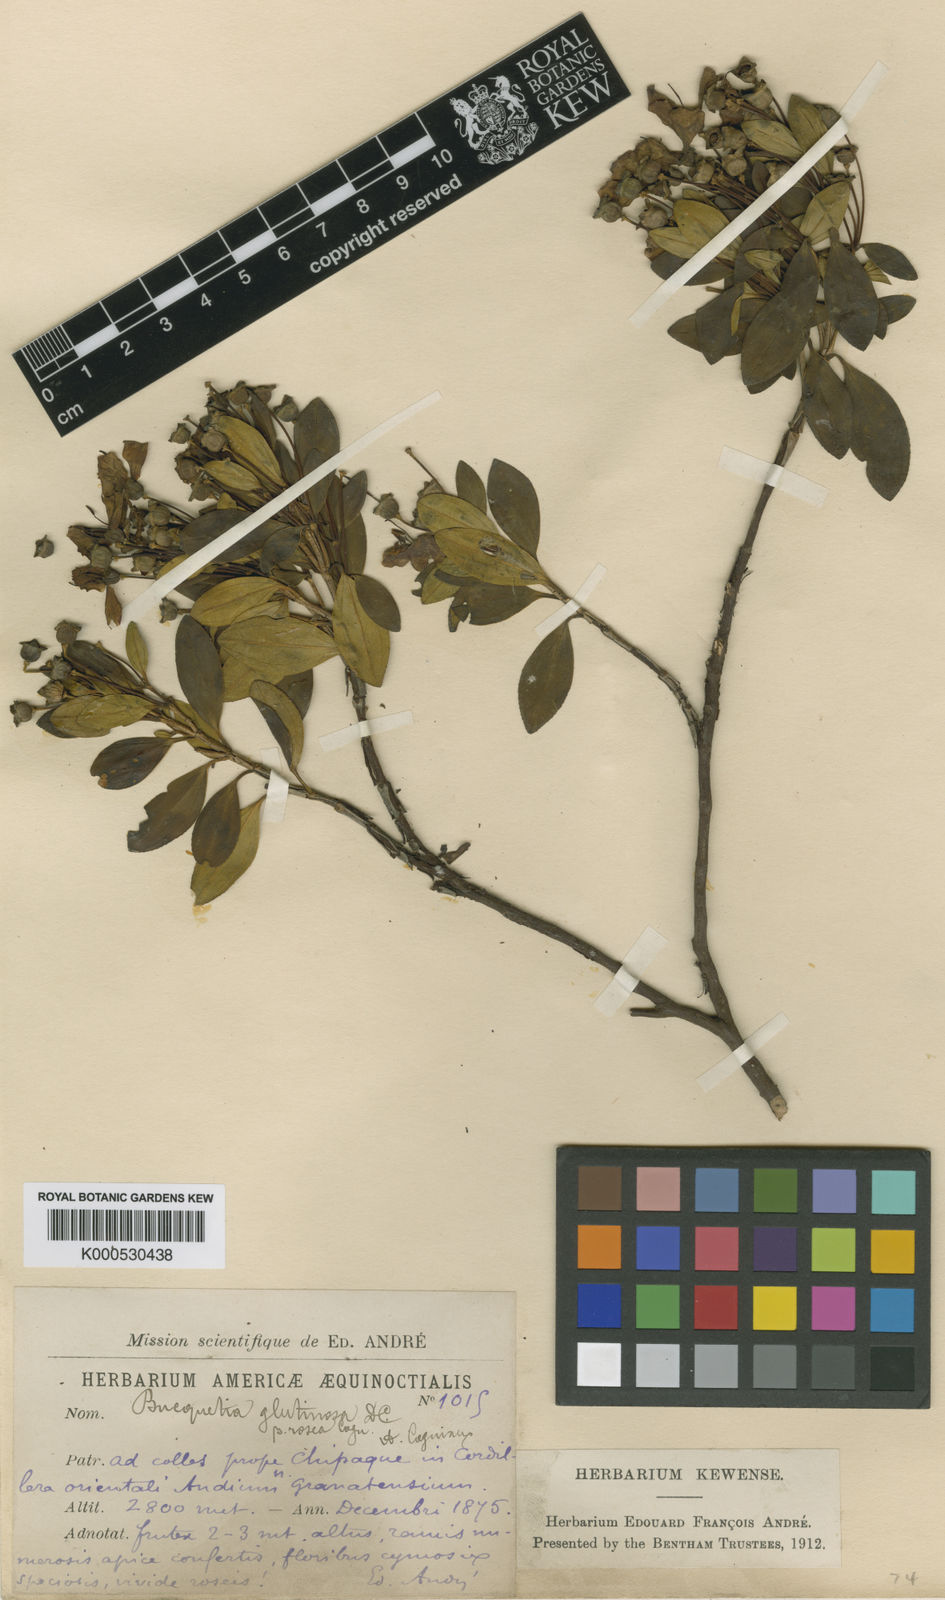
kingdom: Plantae
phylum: Tracheophyta
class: Magnoliopsida
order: Myrtales
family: Melastomataceae
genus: Bucquetia
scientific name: Bucquetia glutinosa
